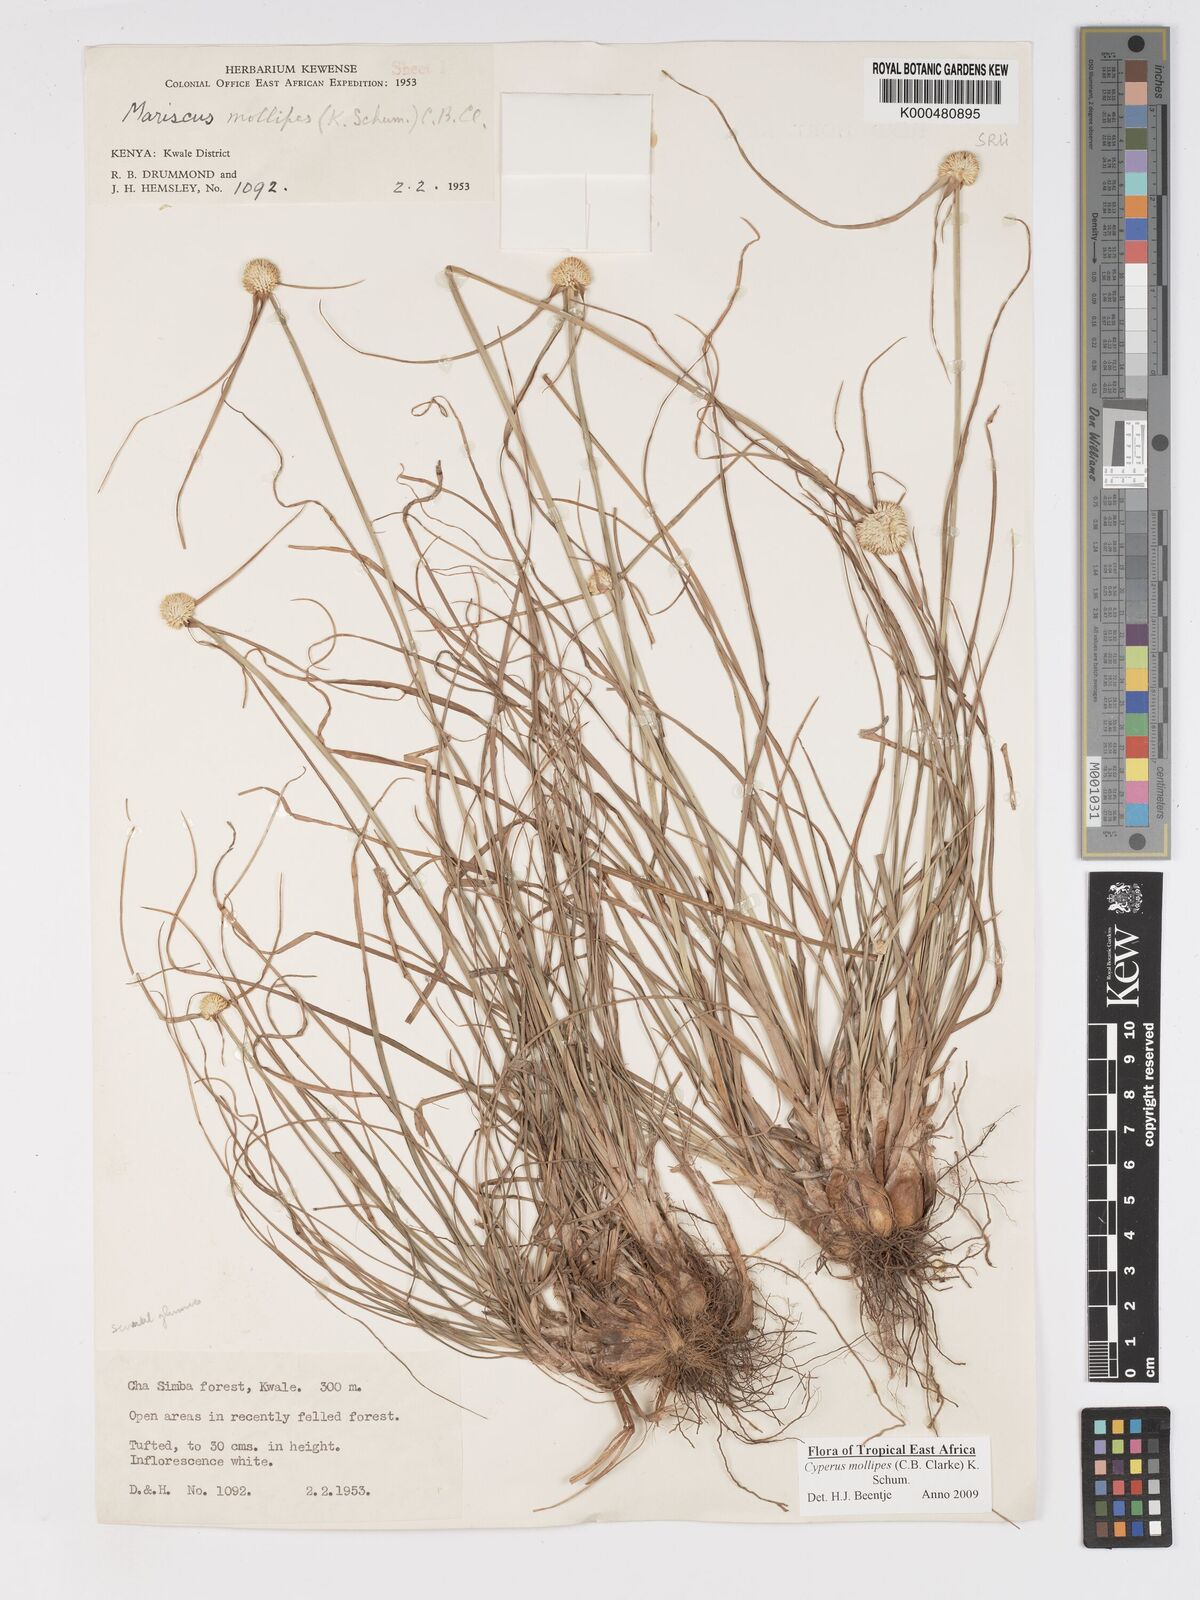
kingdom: Plantae
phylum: Tracheophyta
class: Liliopsida
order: Poales
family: Cyperaceae
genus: Cyperus
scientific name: Cyperus mollipes
